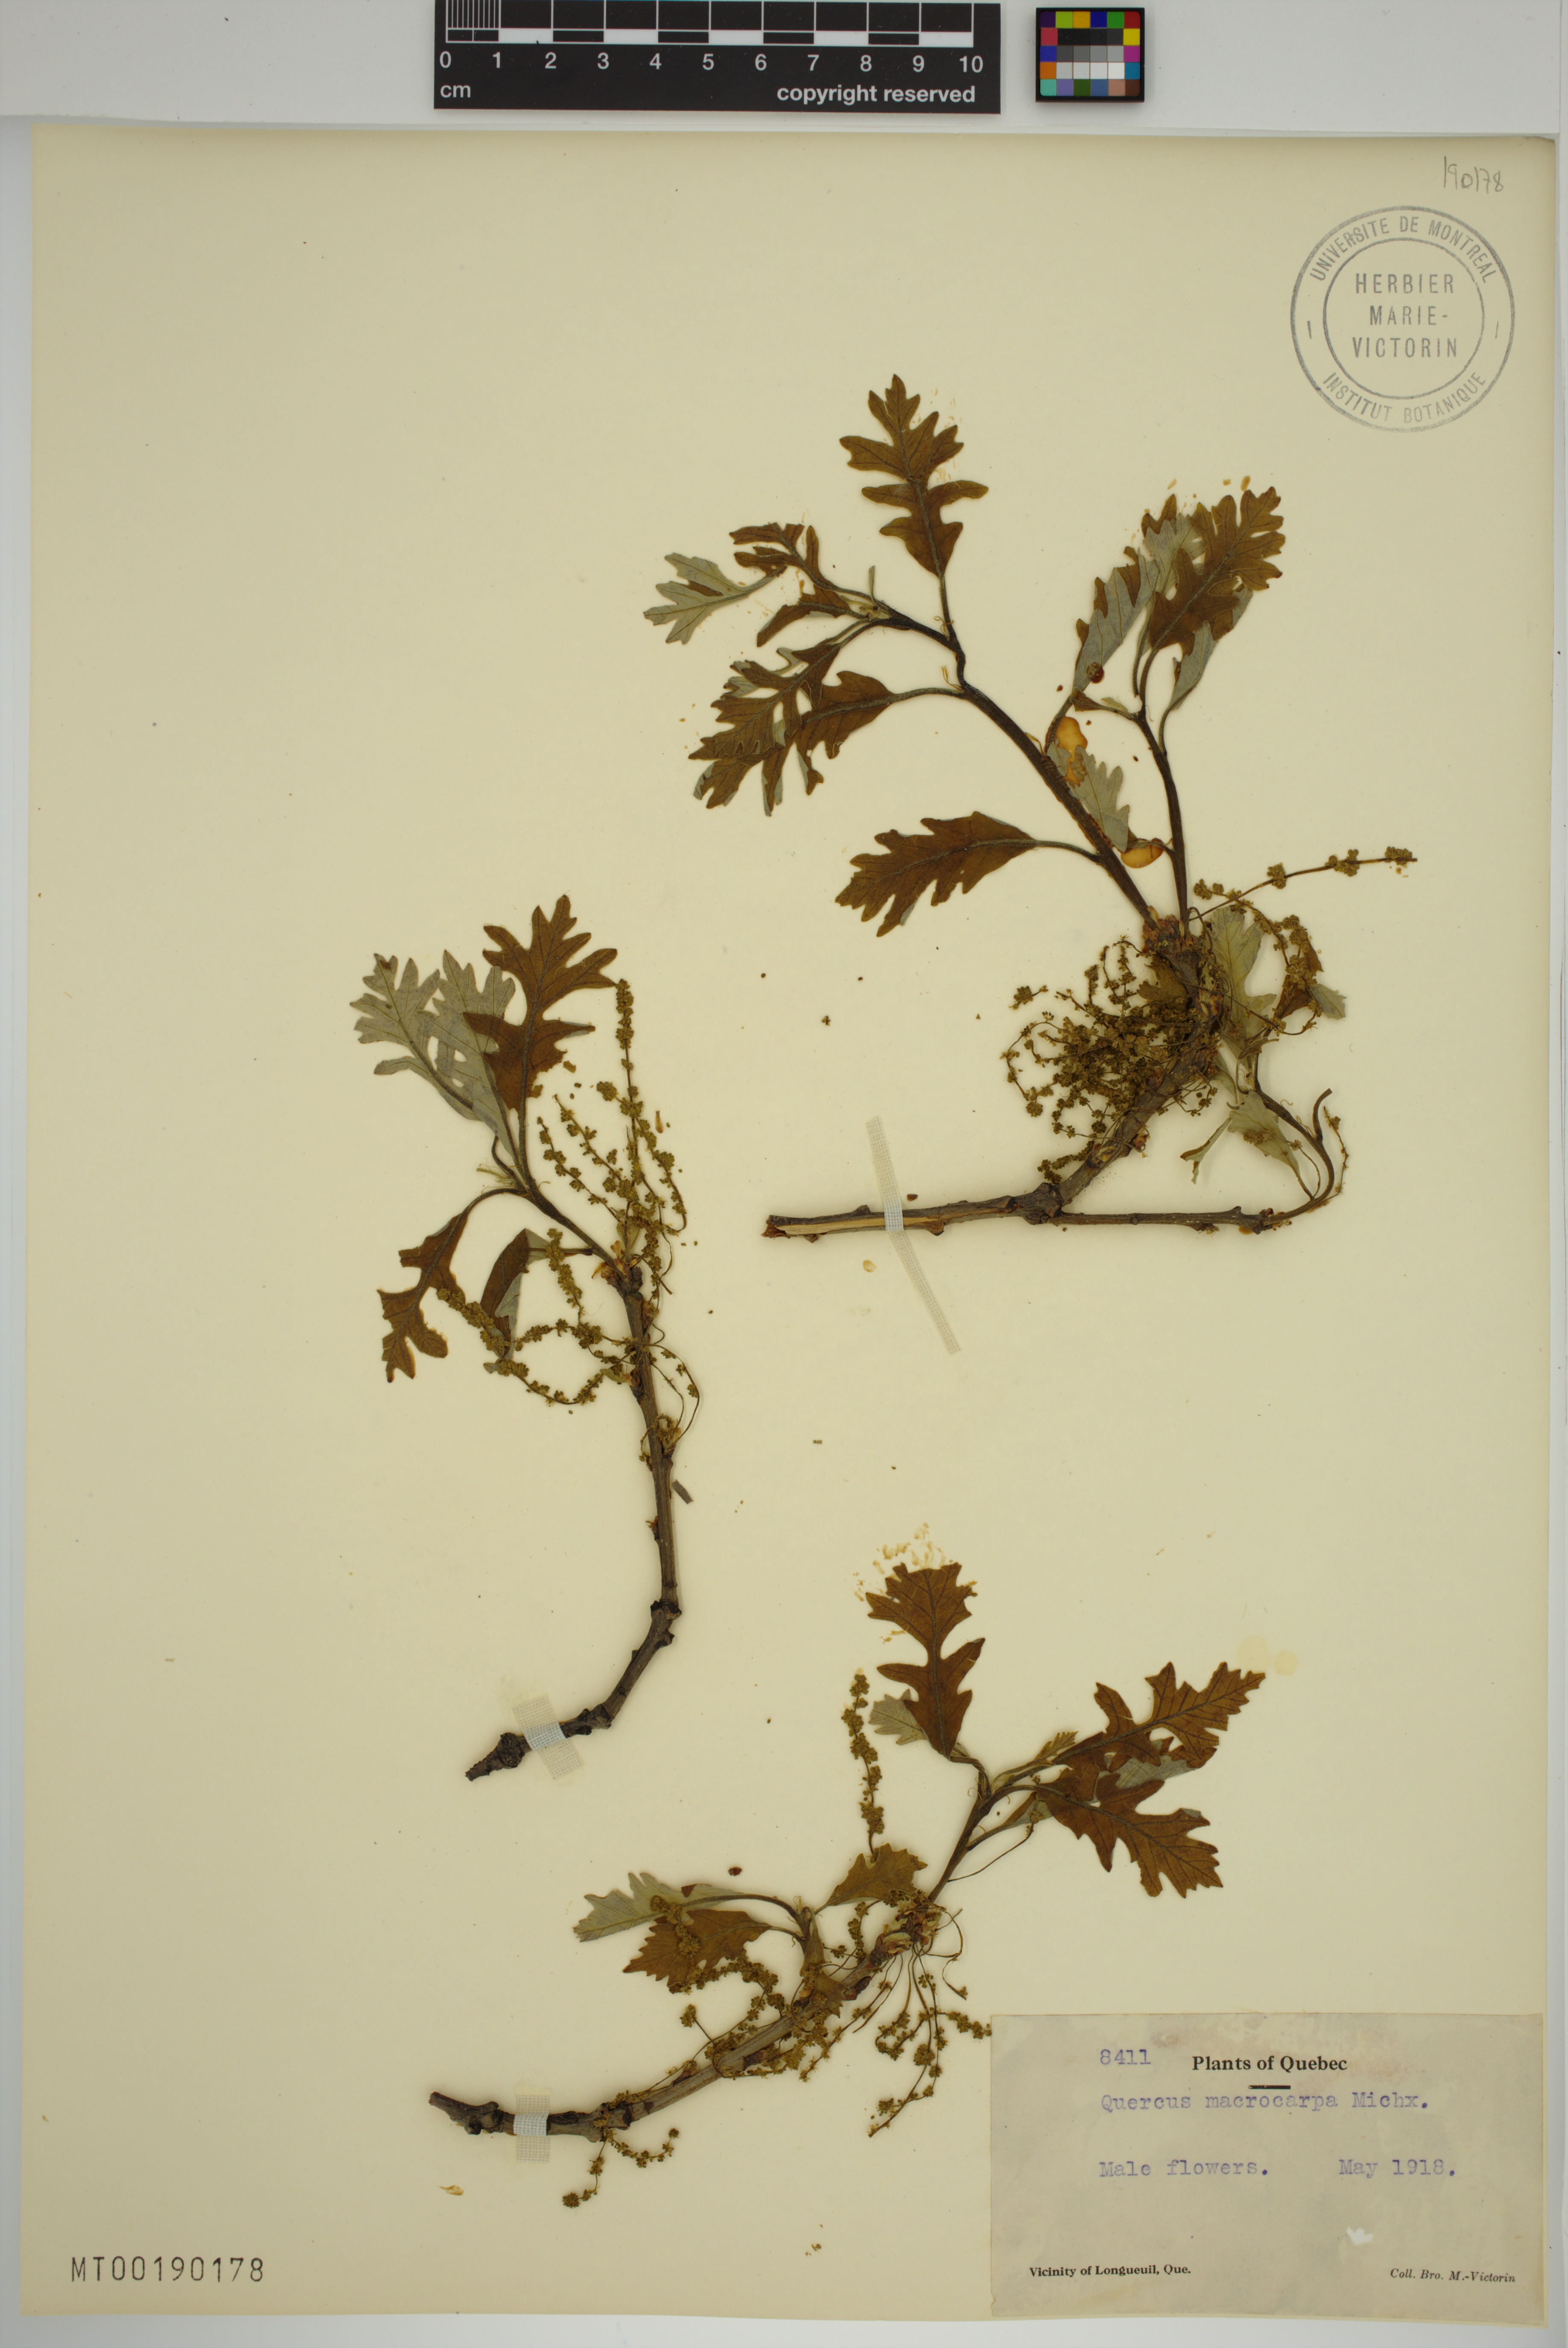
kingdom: Plantae
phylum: Tracheophyta
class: Magnoliopsida
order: Fagales
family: Fagaceae
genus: Quercus
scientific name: Quercus macrocarpa
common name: Bur oak
